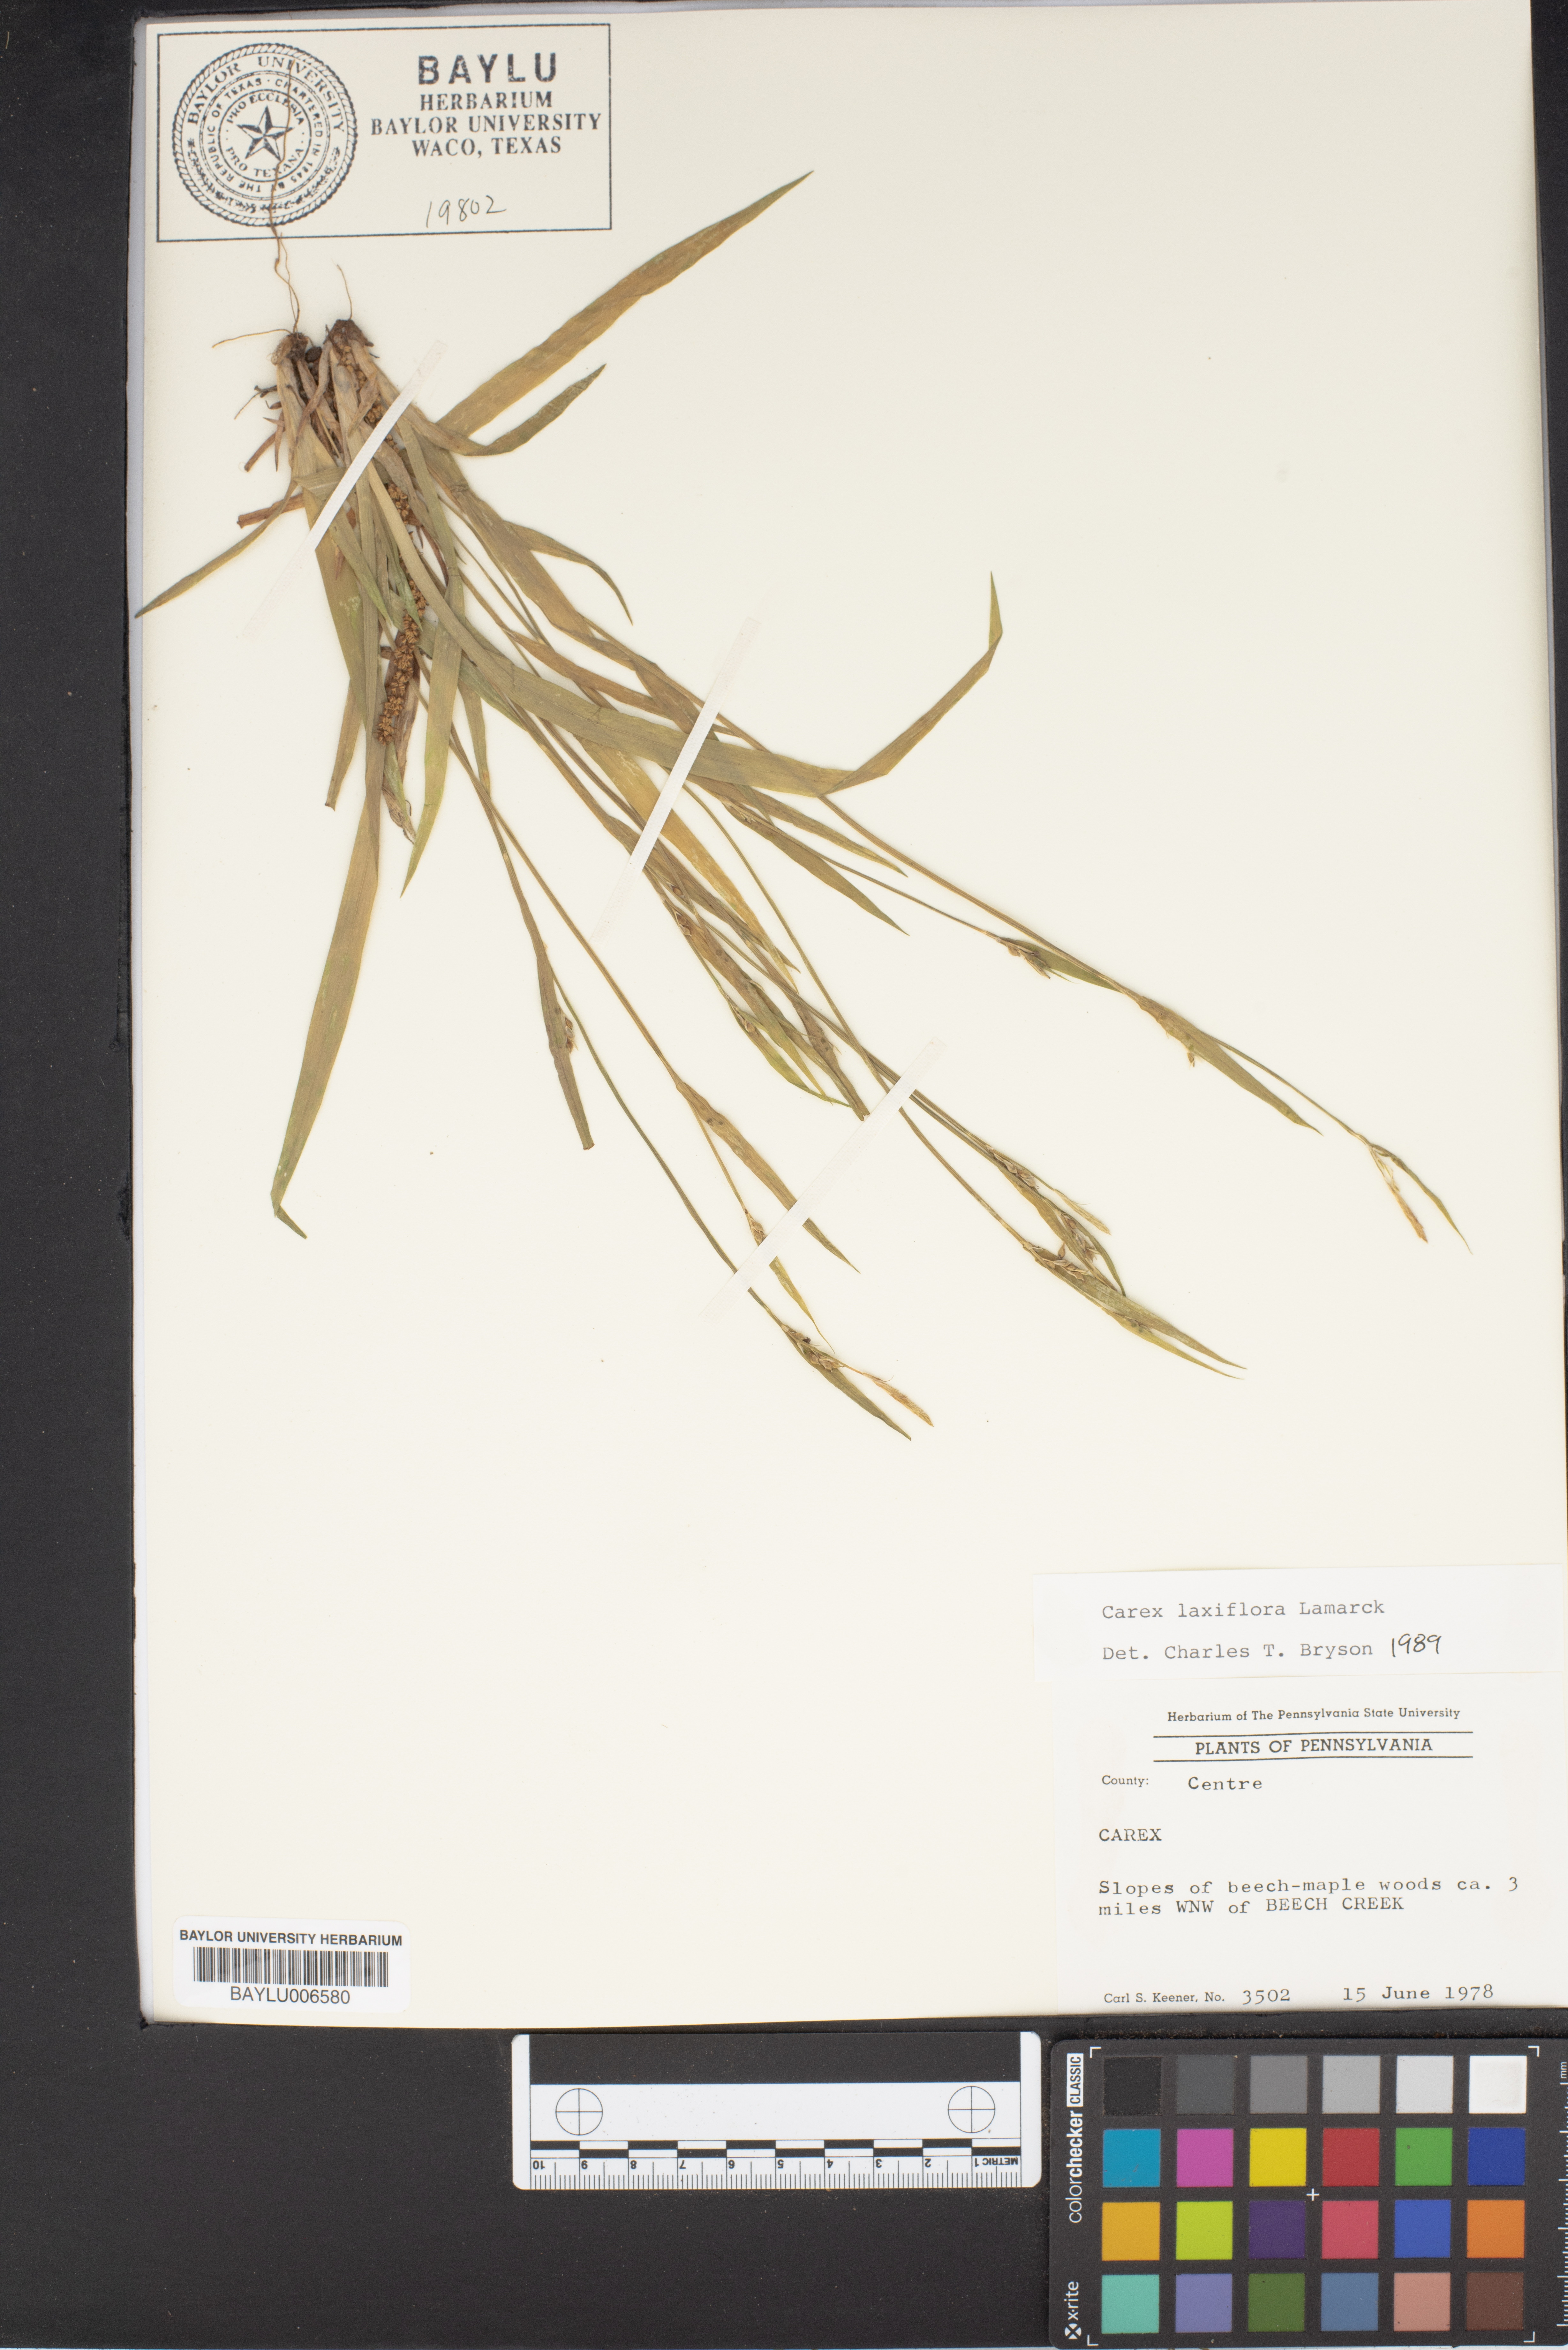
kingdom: Plantae
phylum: Tracheophyta
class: Liliopsida
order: Poales
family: Cyperaceae
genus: Carex
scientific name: Carex
